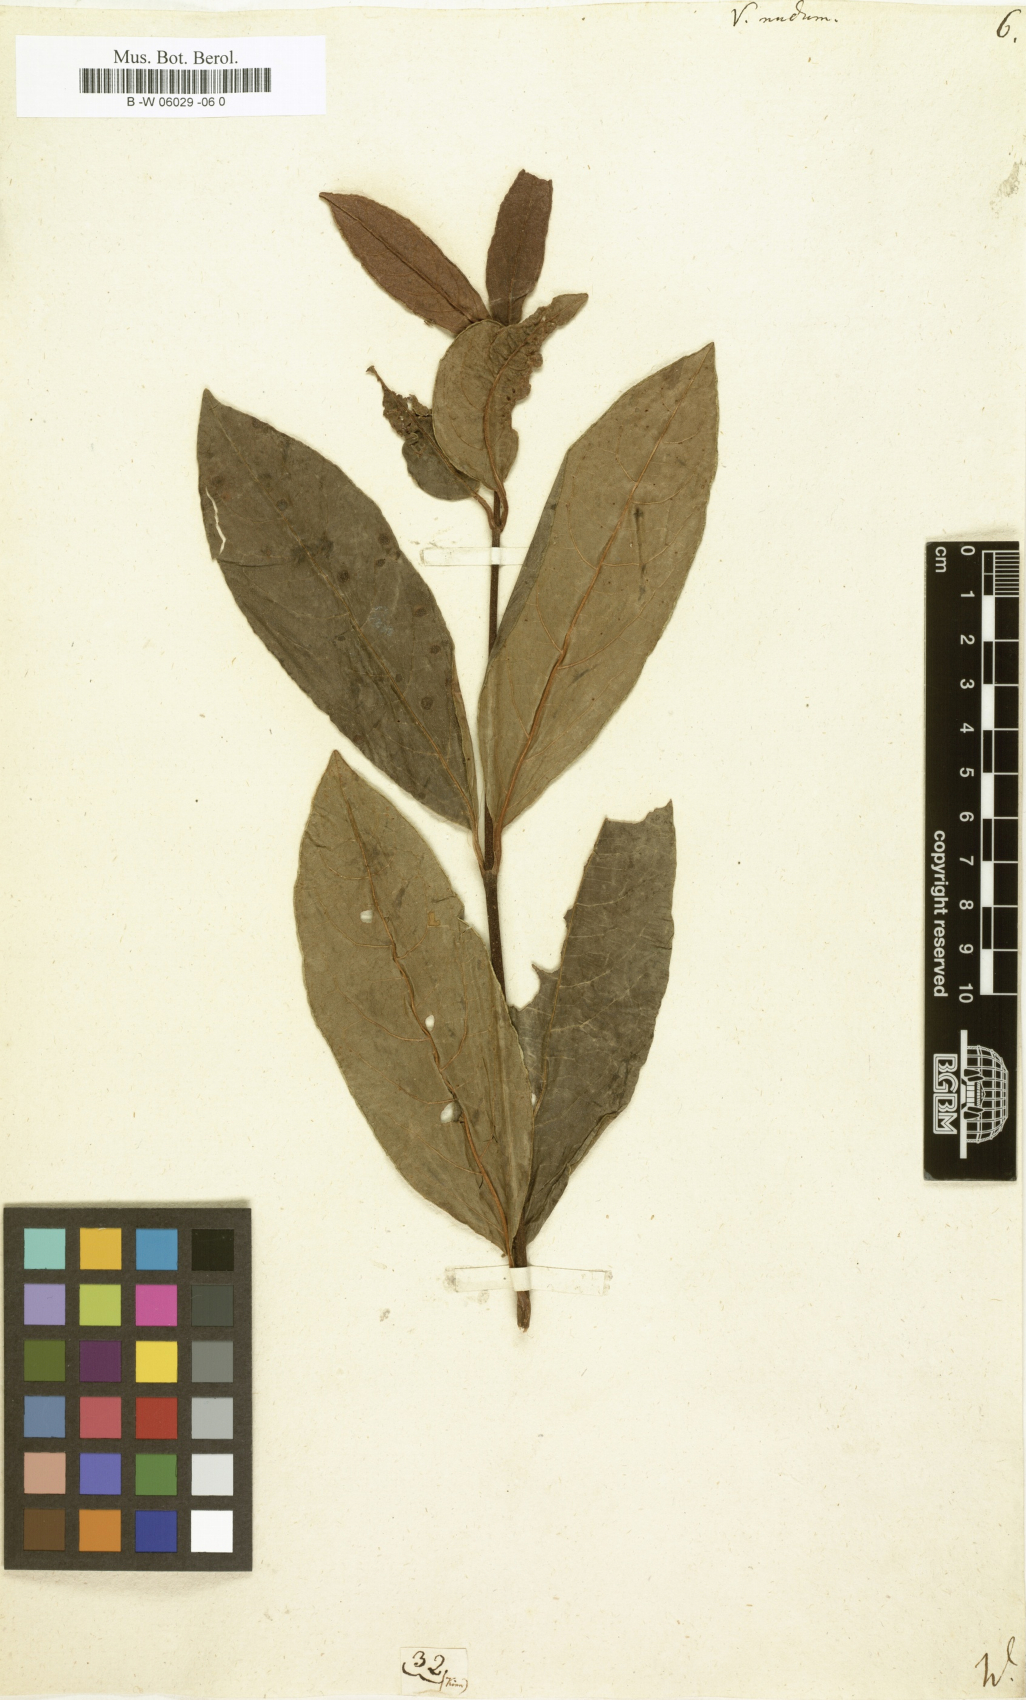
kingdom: Plantae
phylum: Tracheophyta
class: Magnoliopsida
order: Dipsacales
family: Viburnaceae
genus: Viburnum
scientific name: Viburnum nudum
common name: Possum haw
